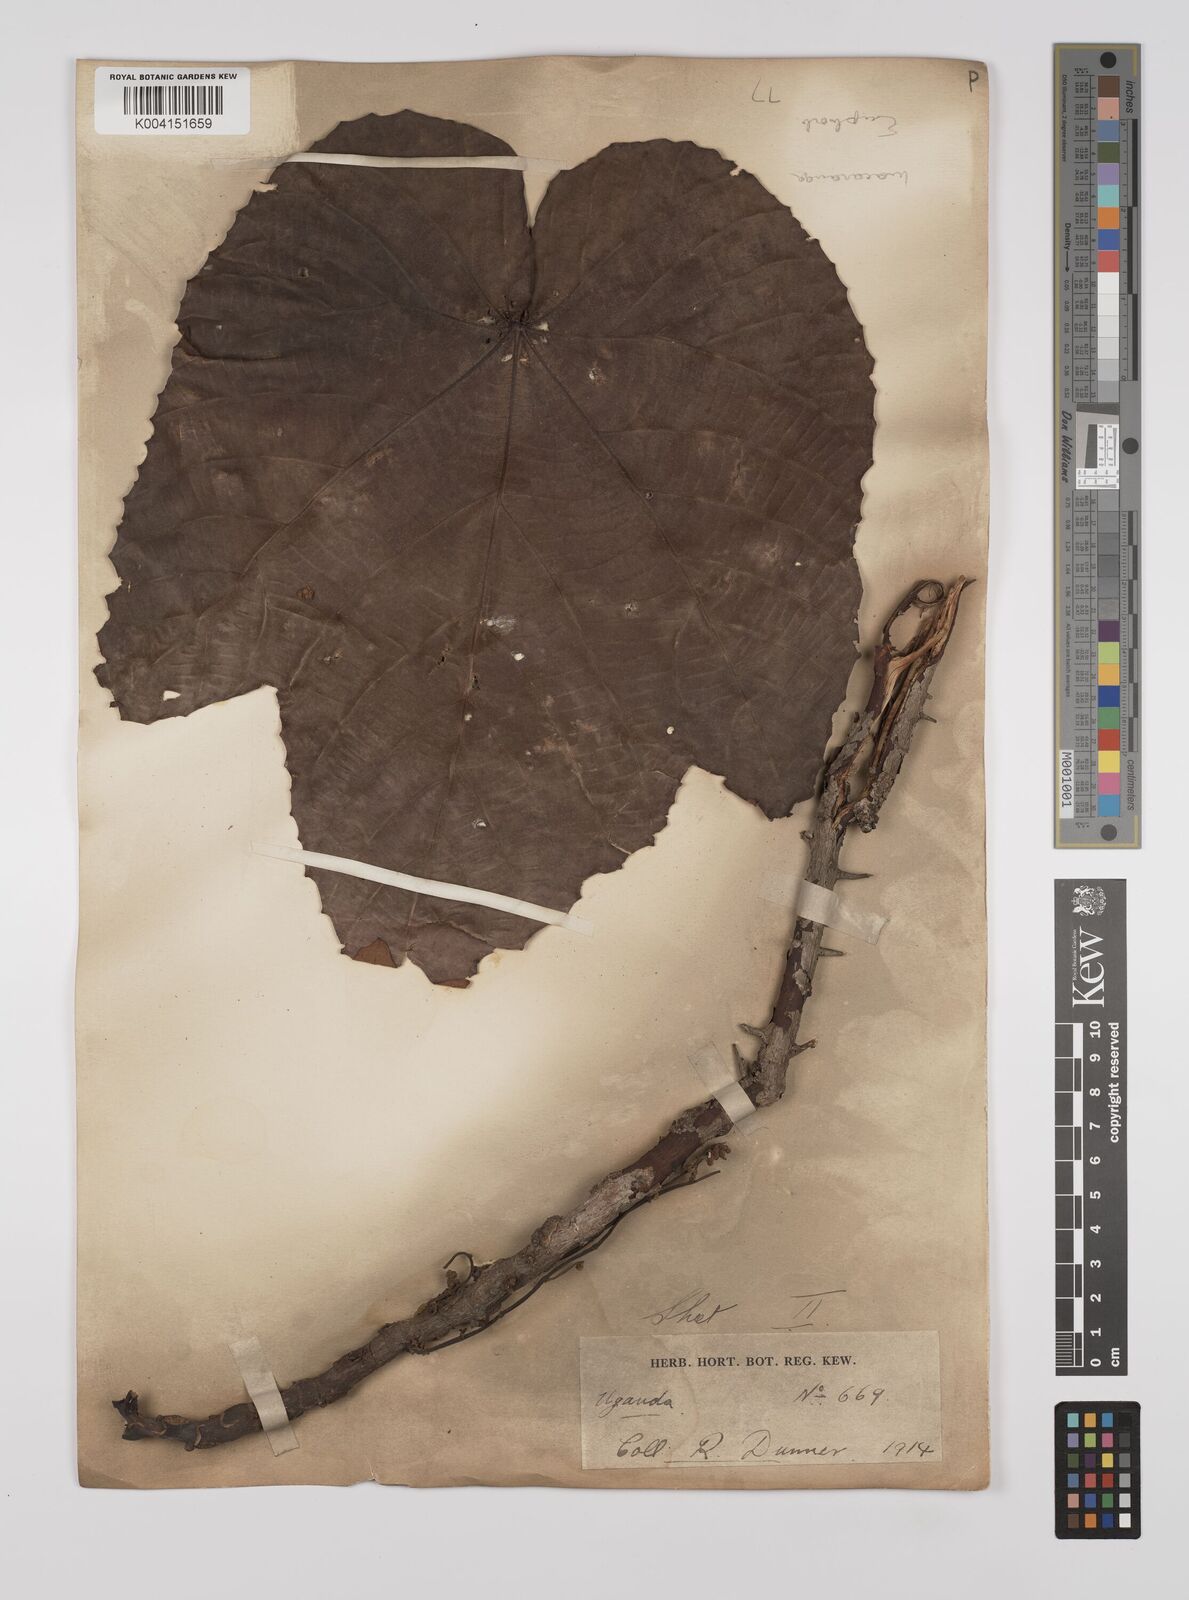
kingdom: Plantae
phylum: Tracheophyta
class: Magnoliopsida
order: Malpighiales
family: Euphorbiaceae
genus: Macaranga
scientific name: Macaranga schweinfurthii
